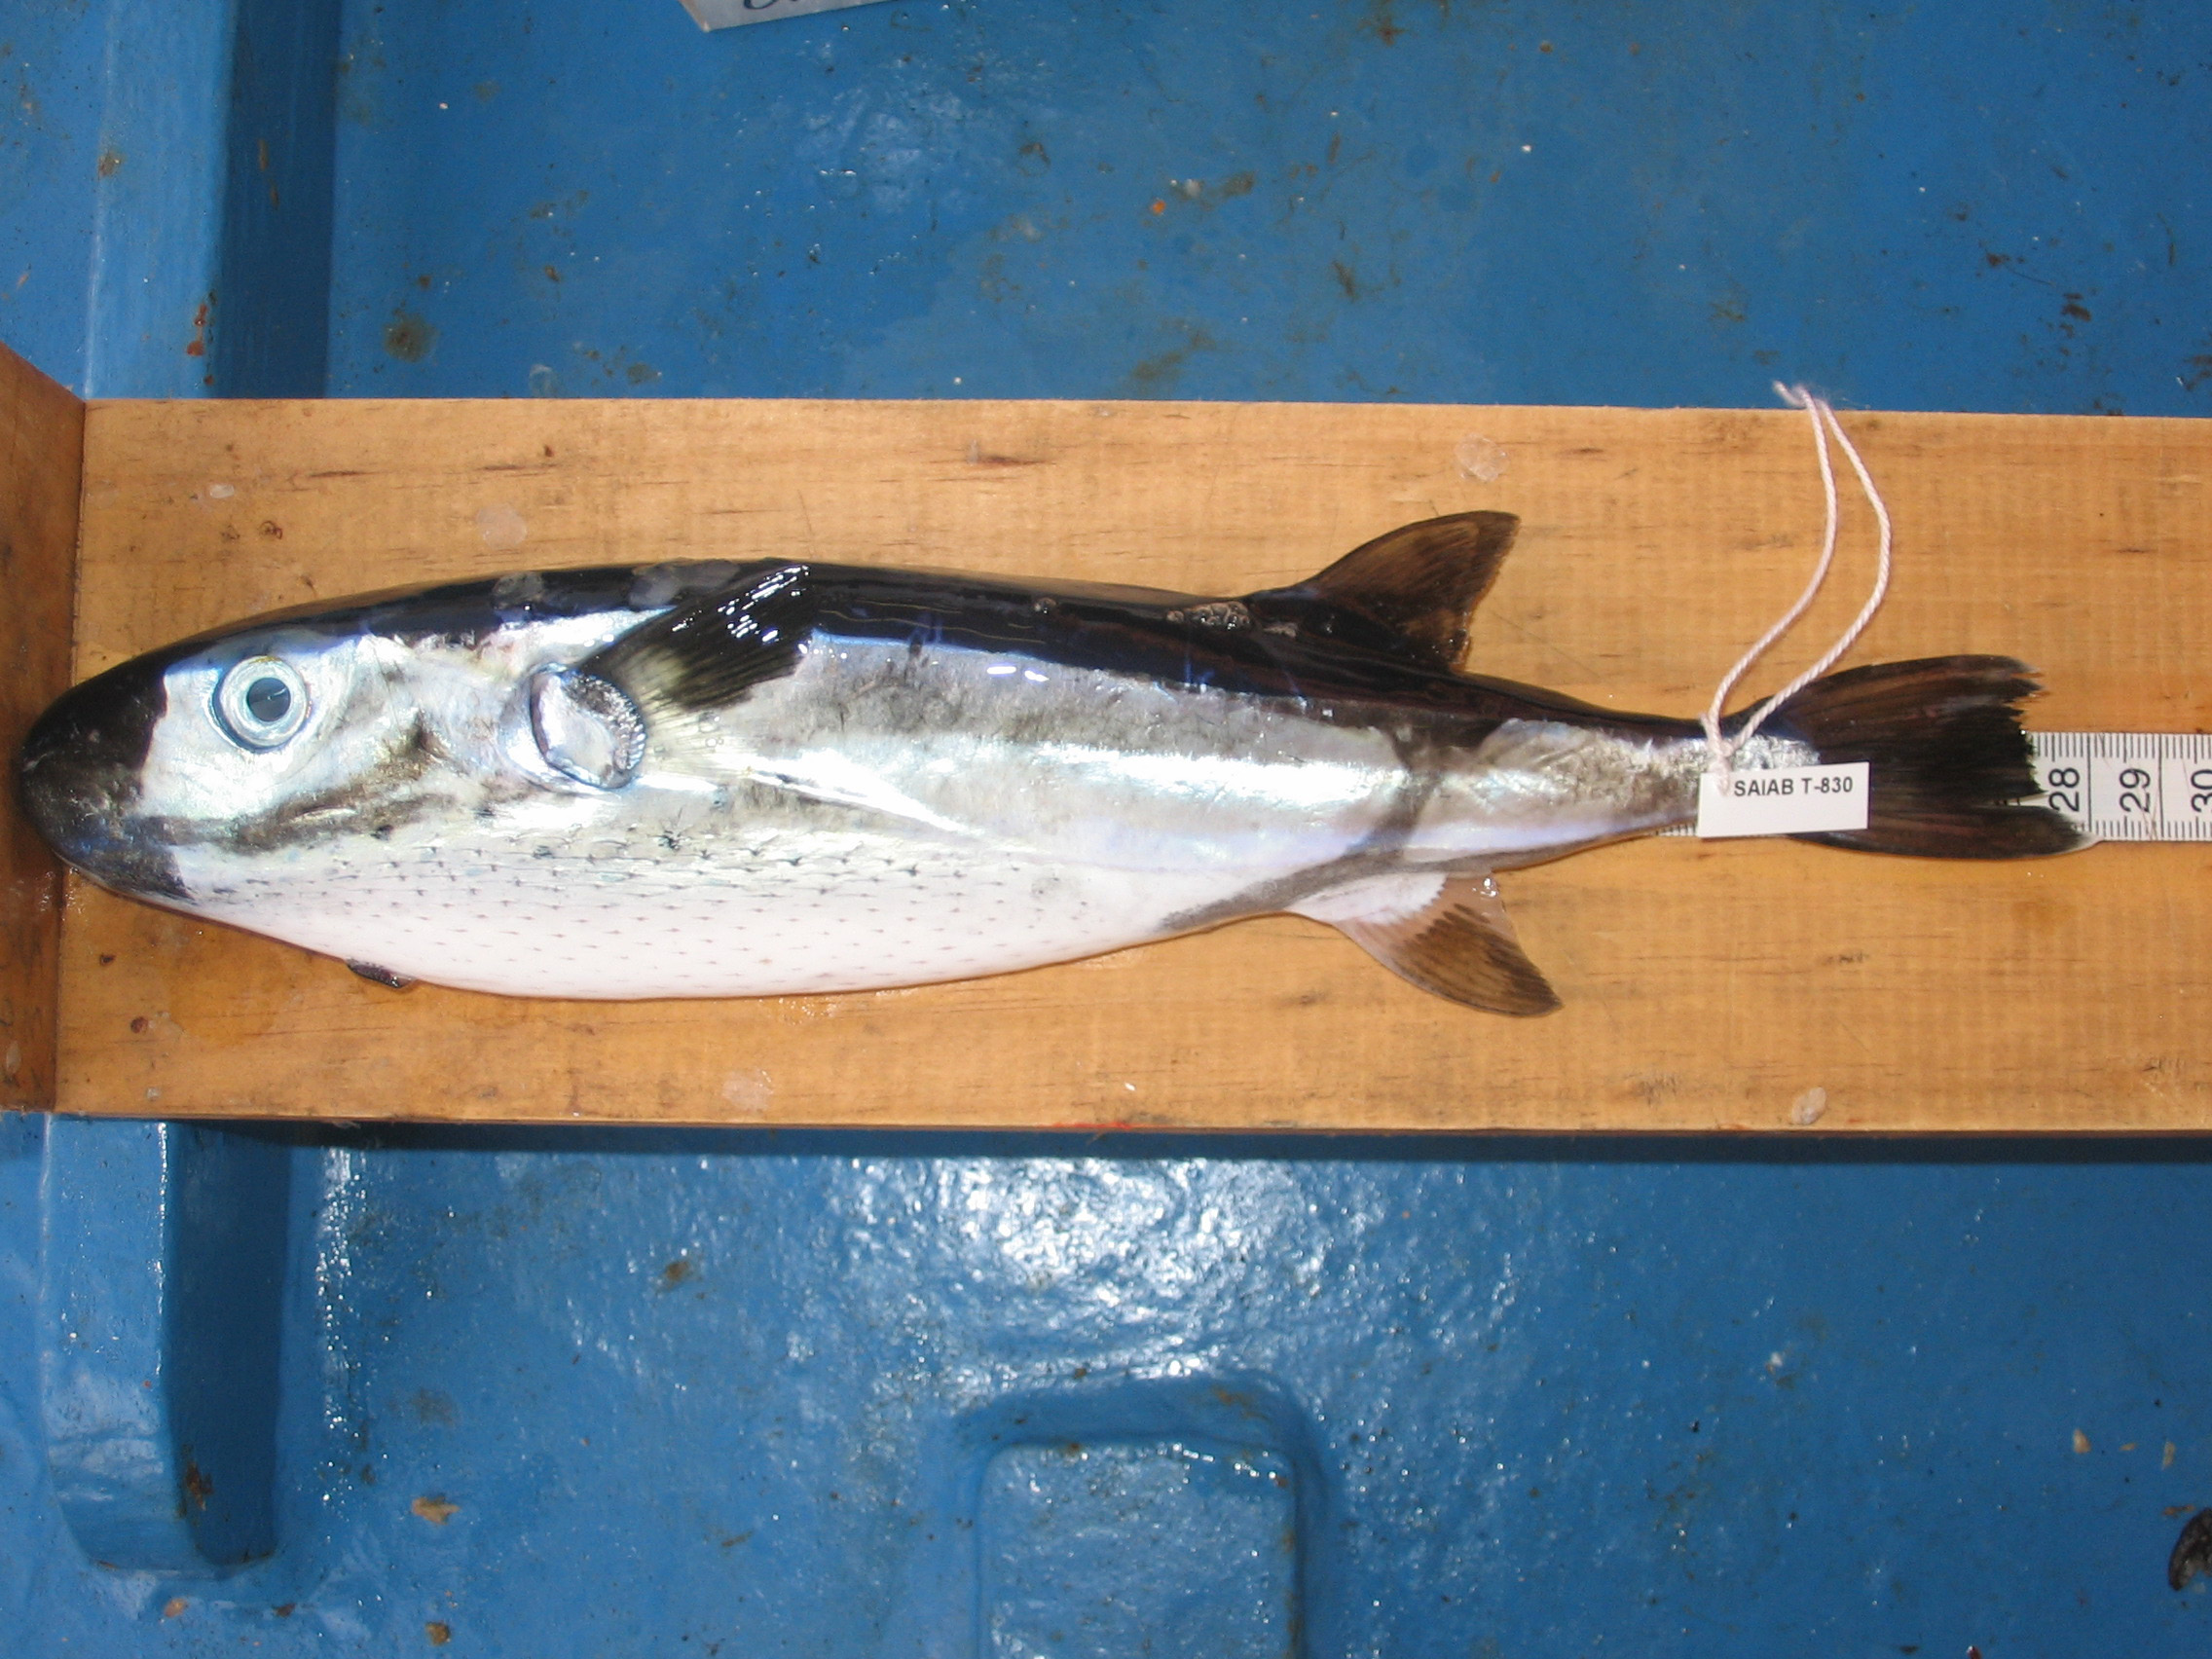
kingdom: Animalia
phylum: Chordata
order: Tetraodontiformes
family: Tetraodontidae
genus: Lagocephalus
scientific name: Lagocephalus lagocephalus
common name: Oceanic puffer
